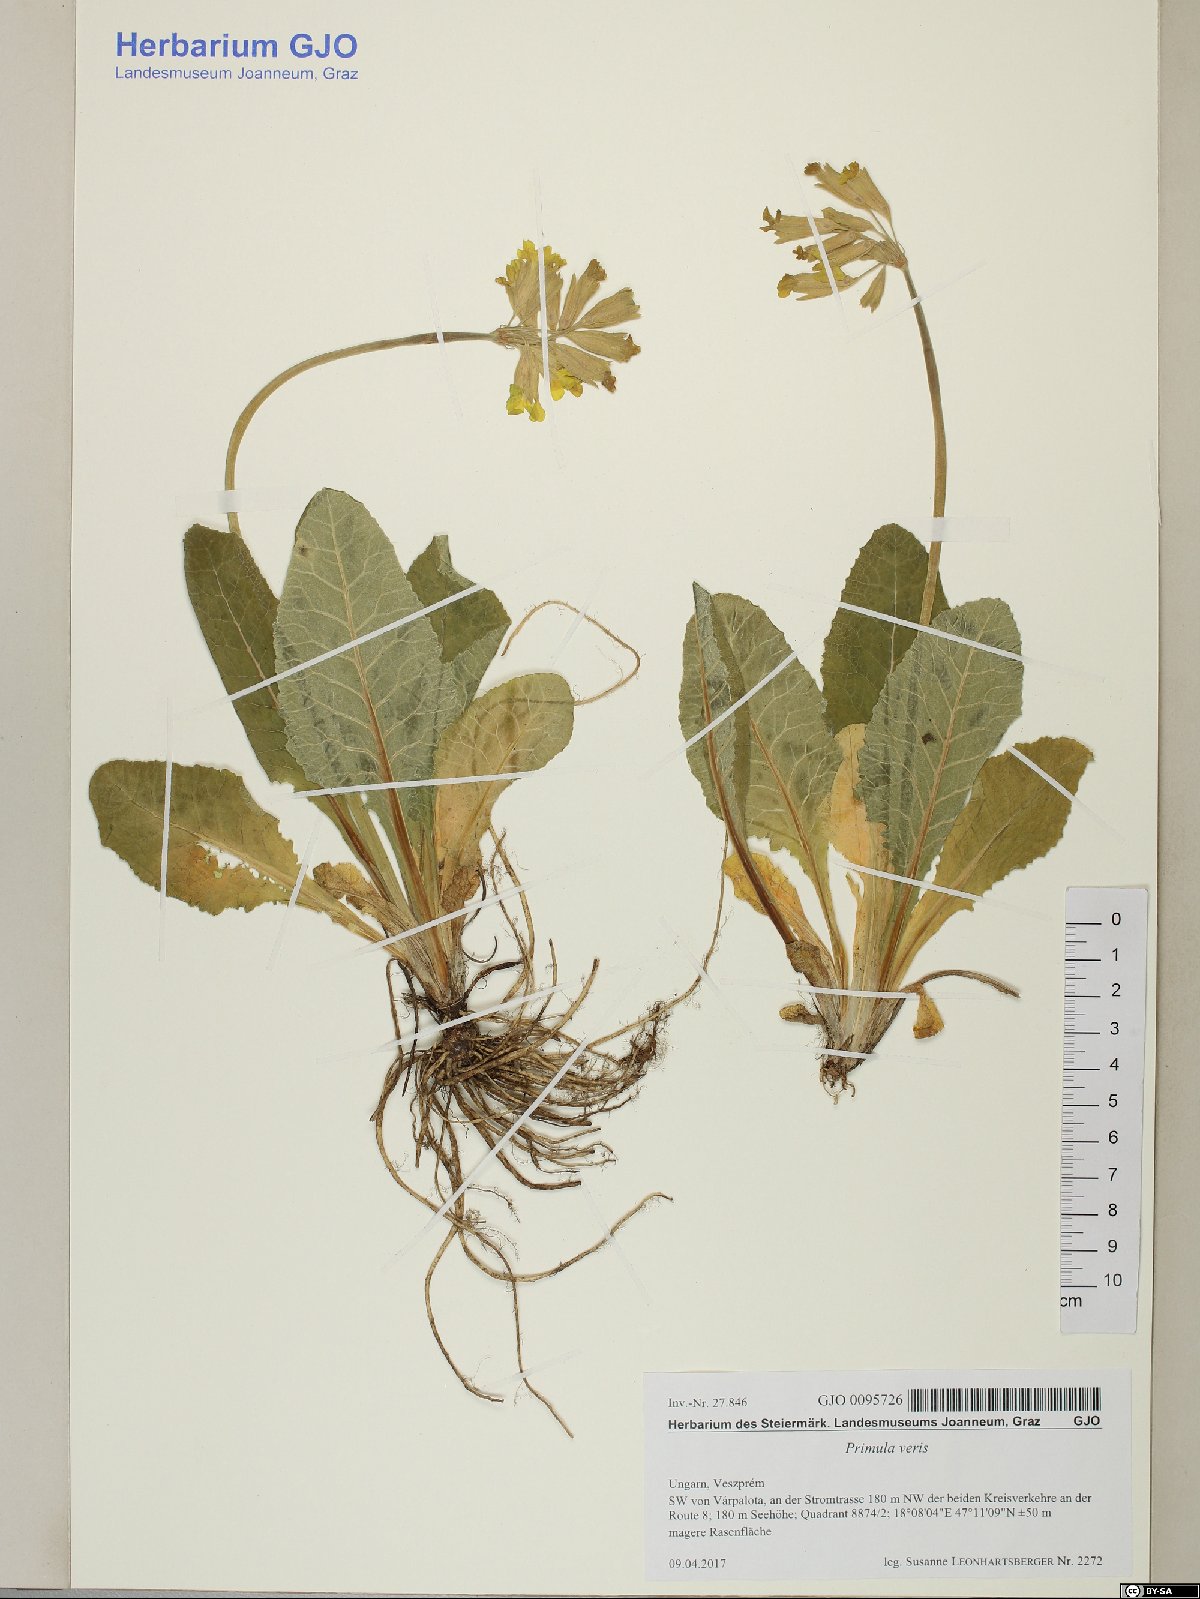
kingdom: Plantae
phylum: Tracheophyta
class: Magnoliopsida
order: Ericales
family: Primulaceae
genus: Primula
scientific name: Primula veris
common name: Cowslip
